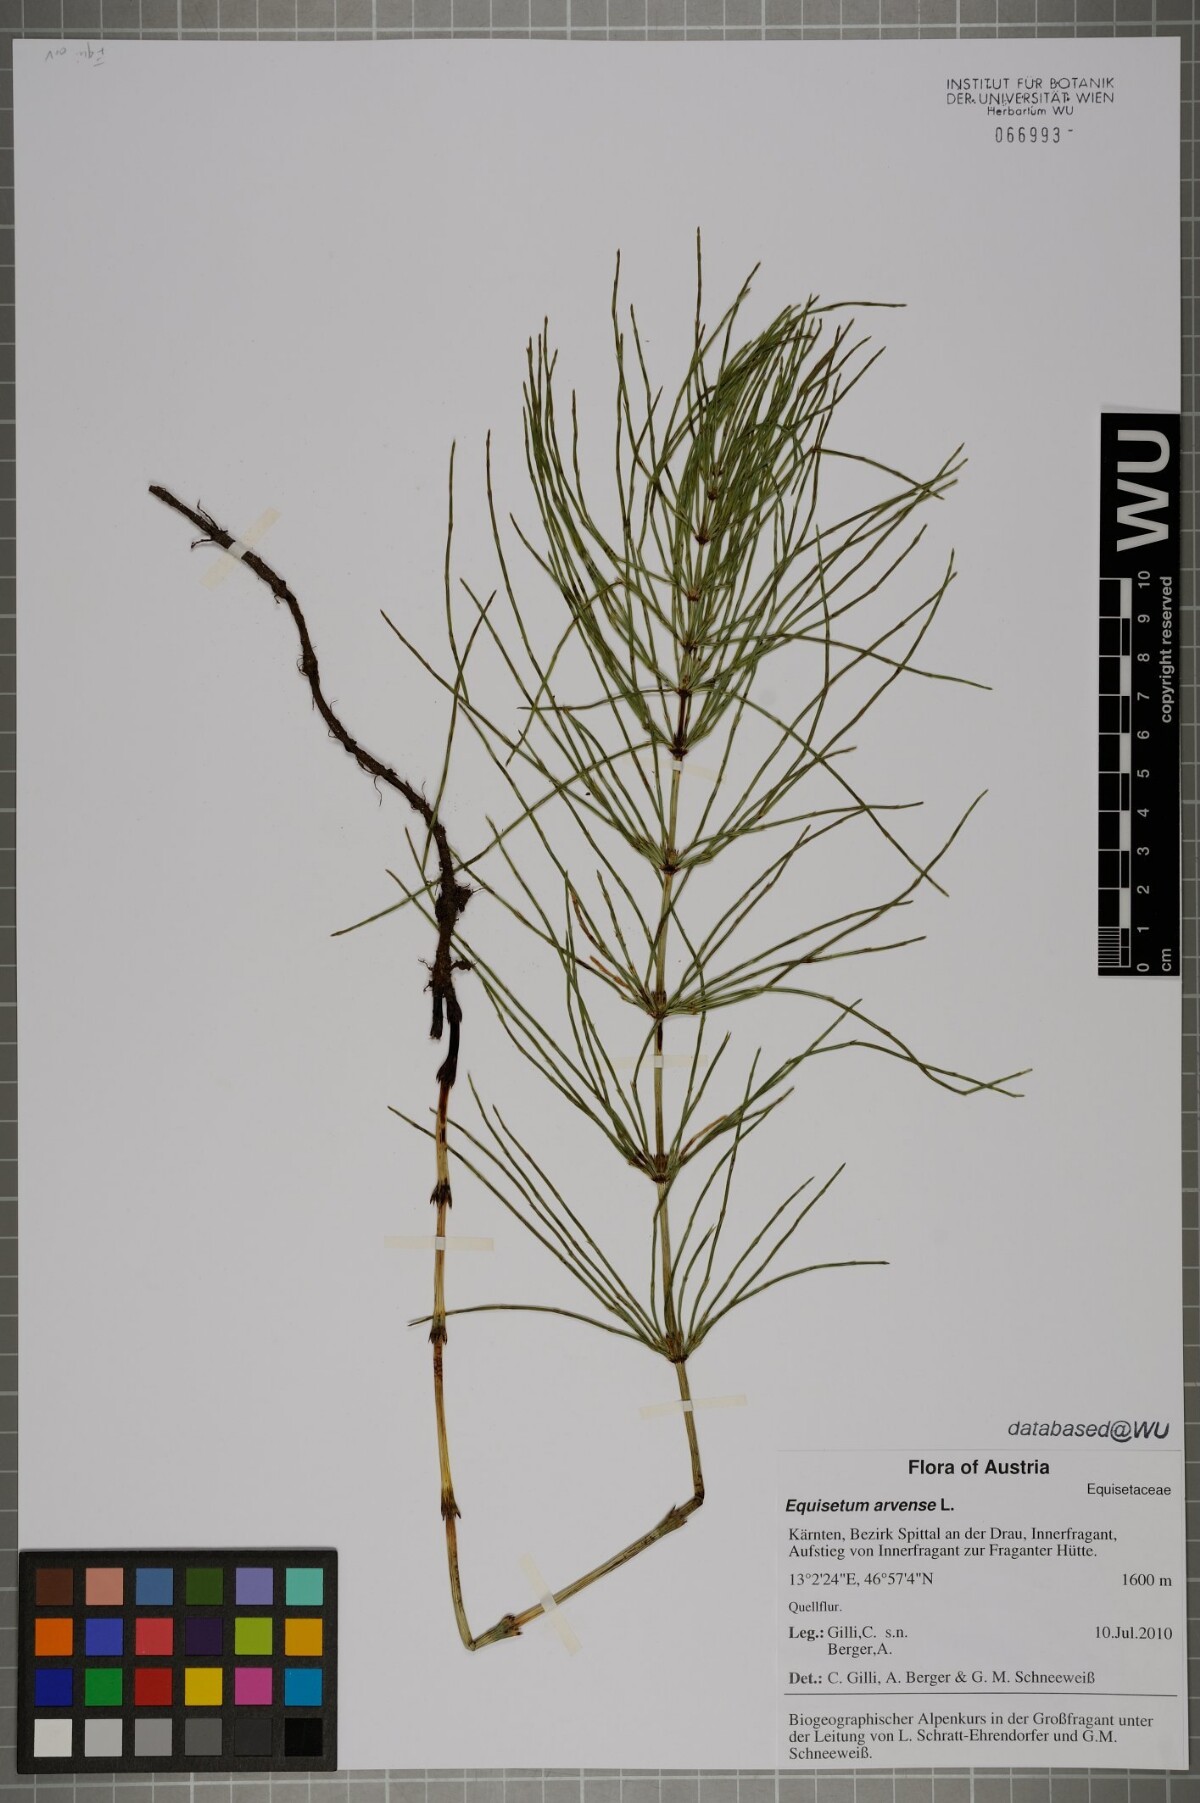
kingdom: Plantae
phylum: Tracheophyta
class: Polypodiopsida
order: Equisetales
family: Equisetaceae
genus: Equisetum
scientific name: Equisetum arvense
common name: Field horsetail
